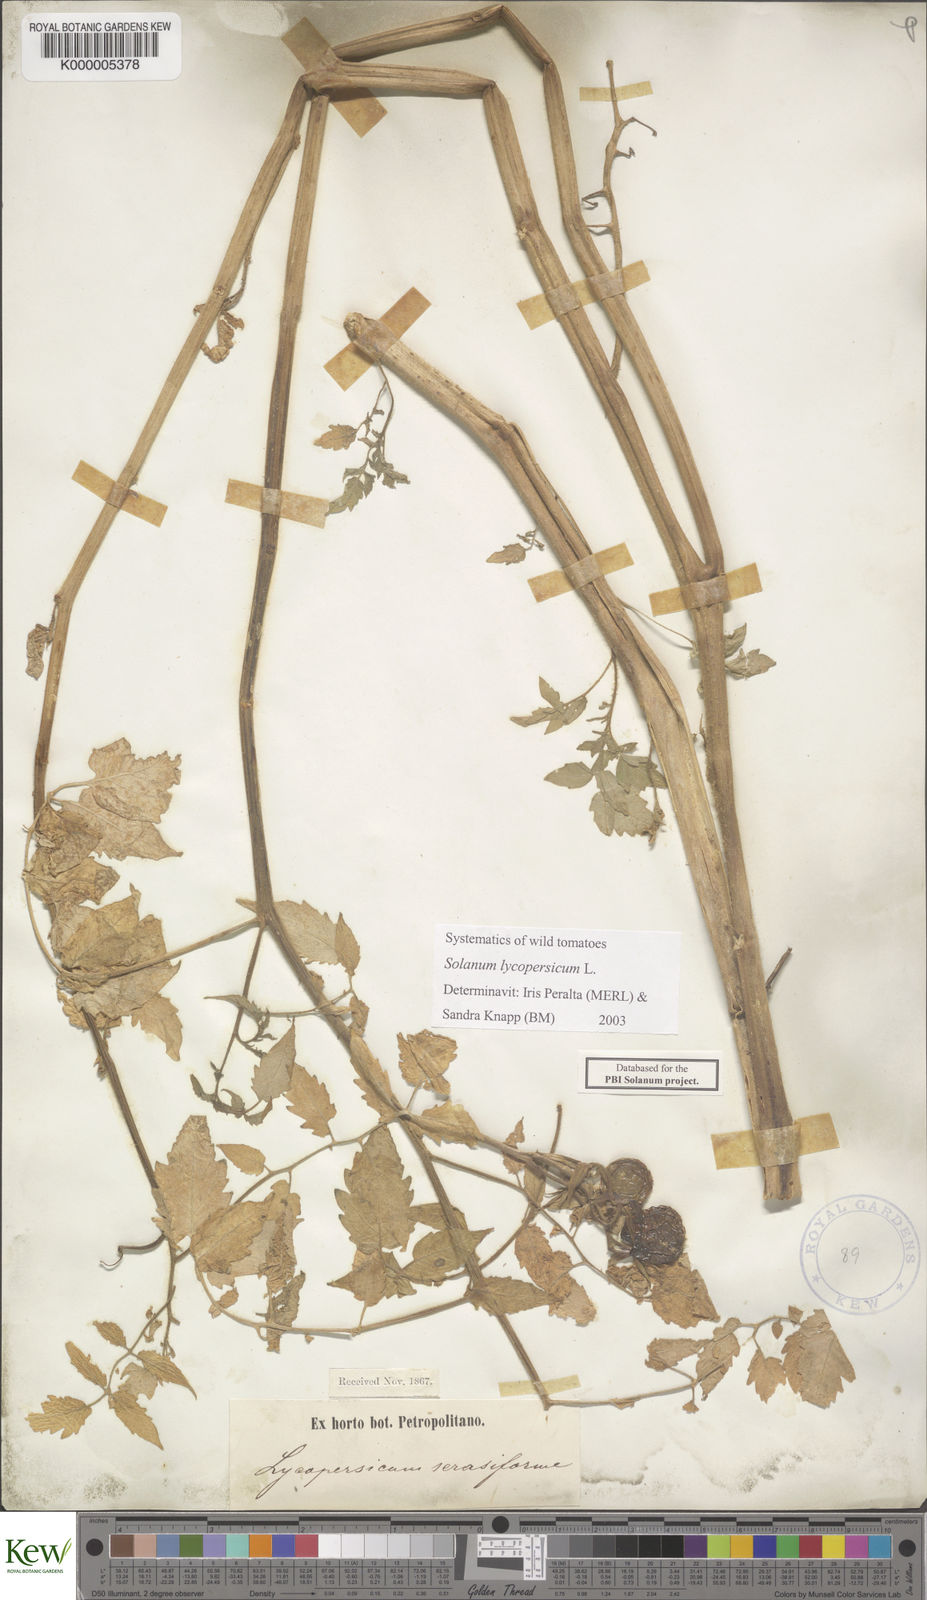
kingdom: Plantae
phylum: Tracheophyta
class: Magnoliopsida
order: Solanales
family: Solanaceae
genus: Solanum
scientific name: Solanum lycopersicum
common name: Garden tomato
